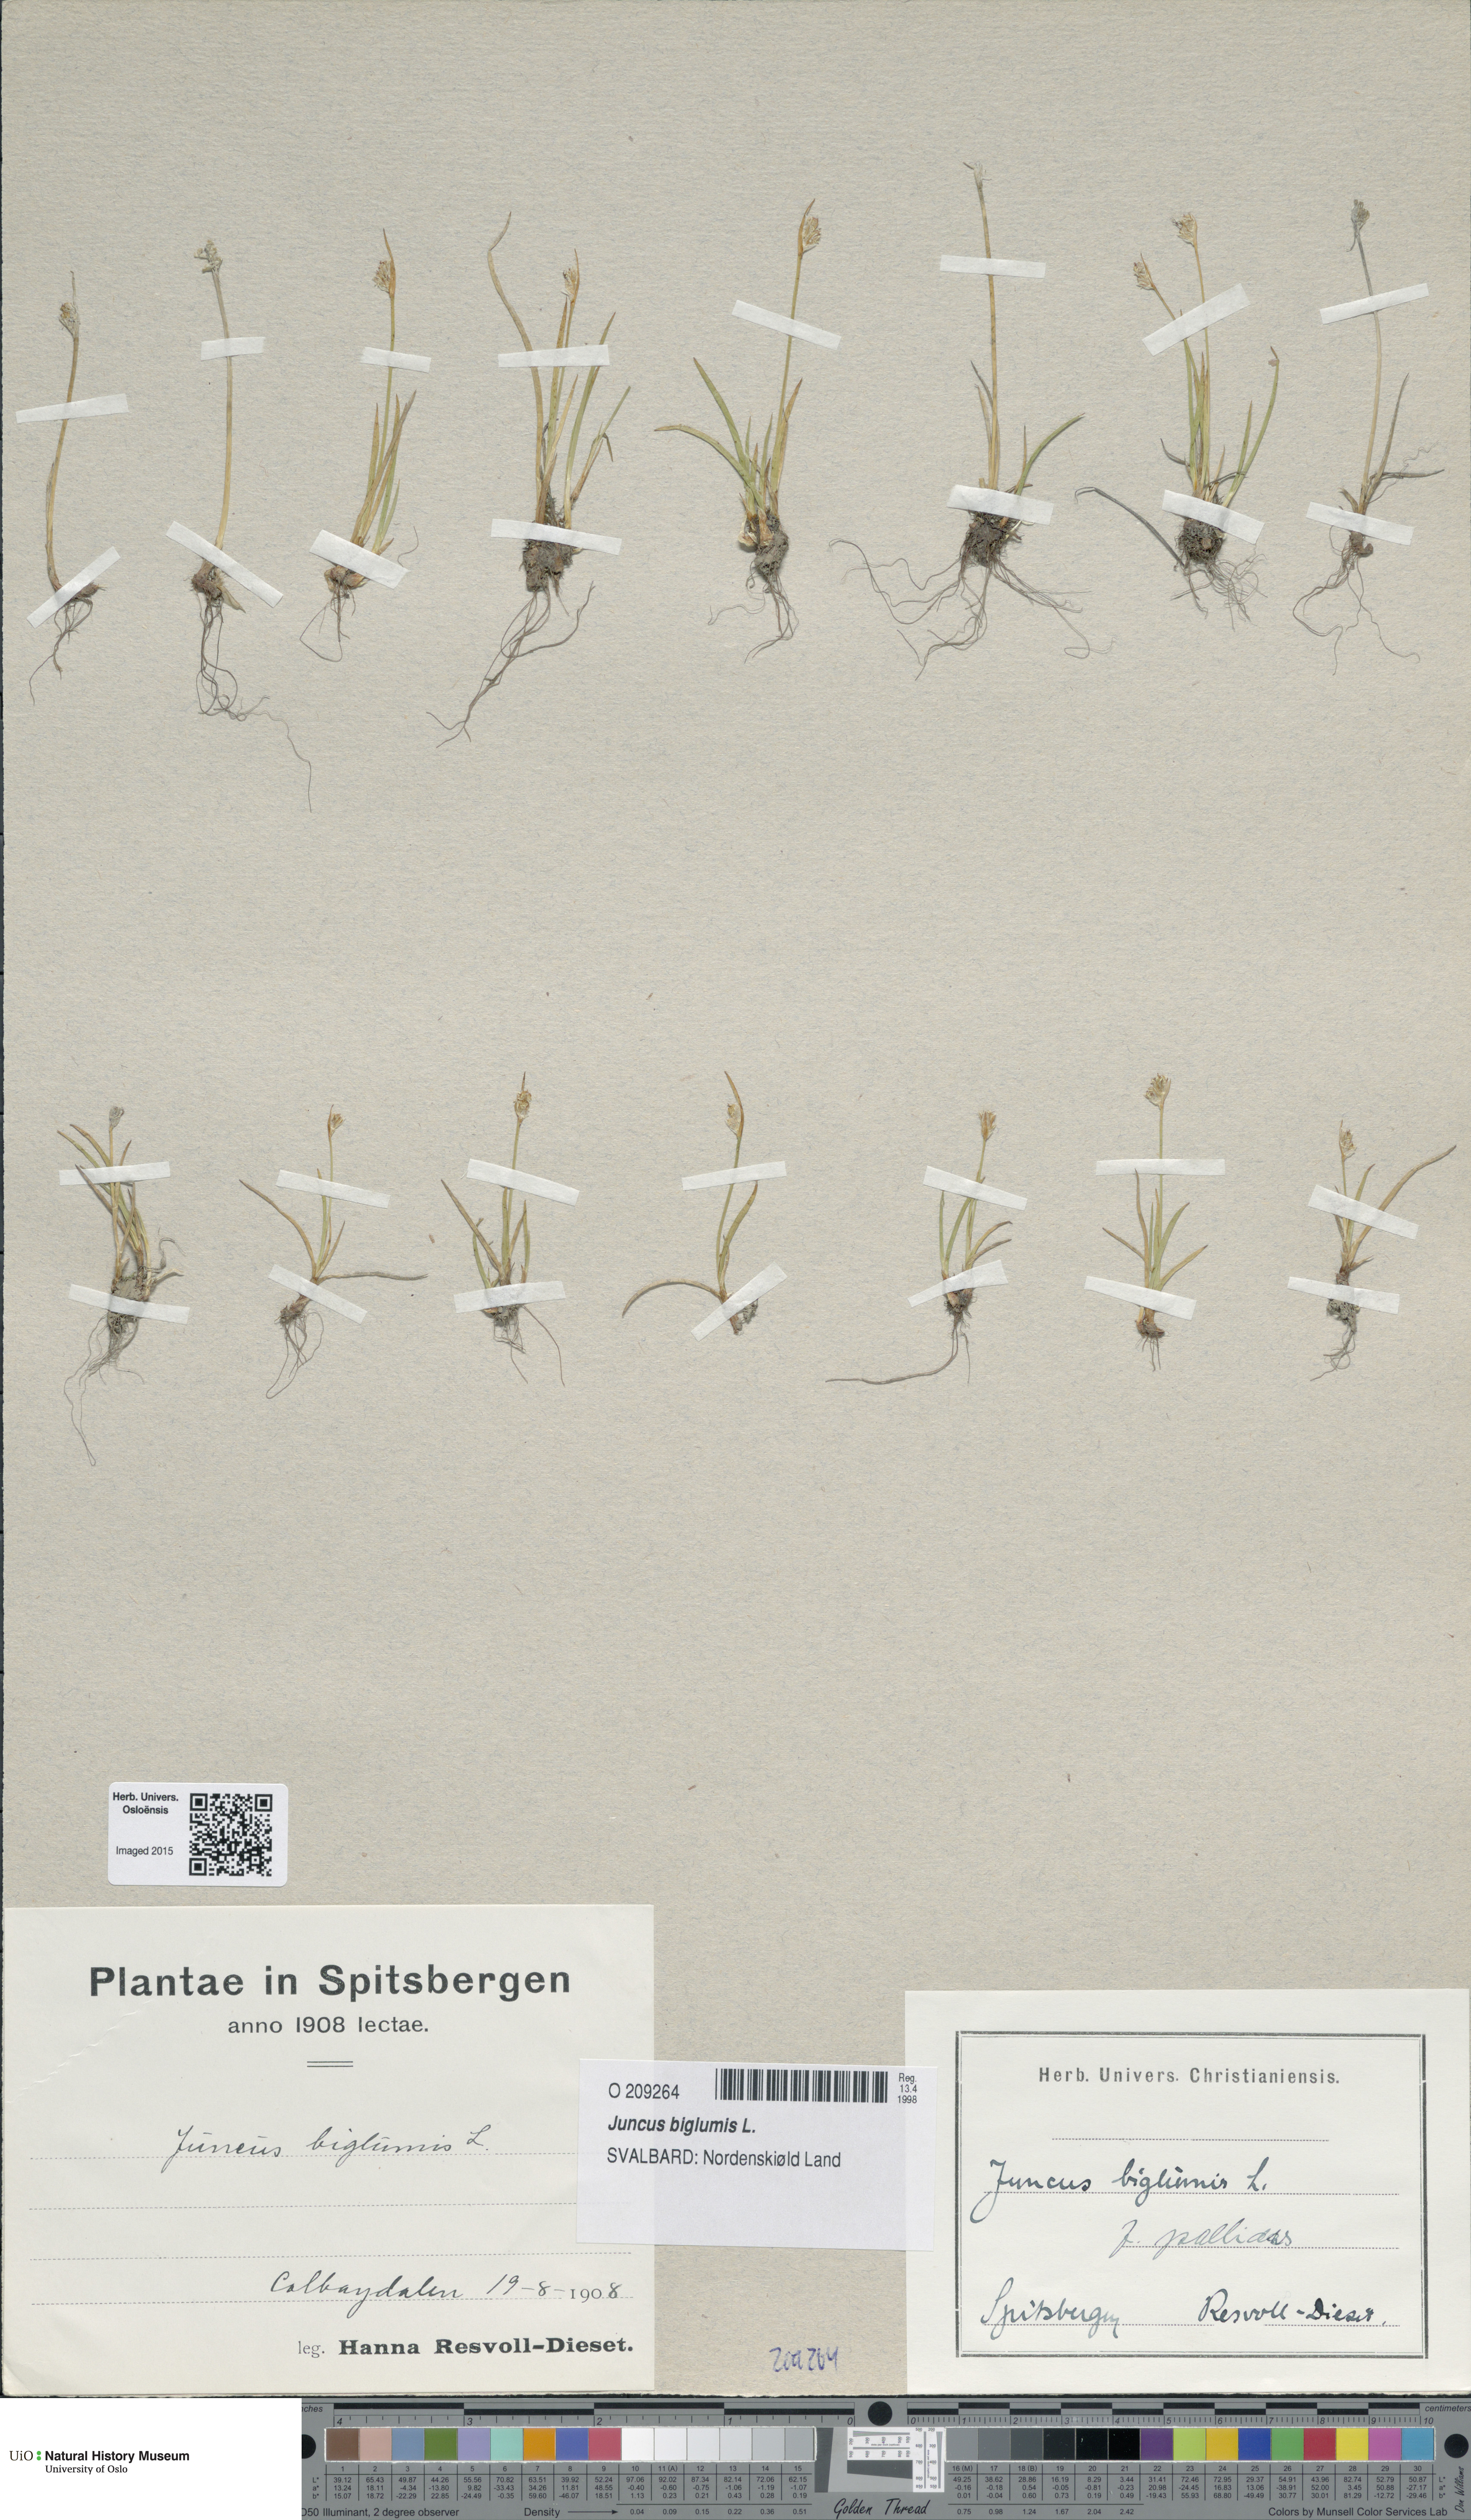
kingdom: Plantae
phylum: Tracheophyta
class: Liliopsida
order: Poales
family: Juncaceae
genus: Juncus
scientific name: Juncus biglumis
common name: Two-flowered rush
